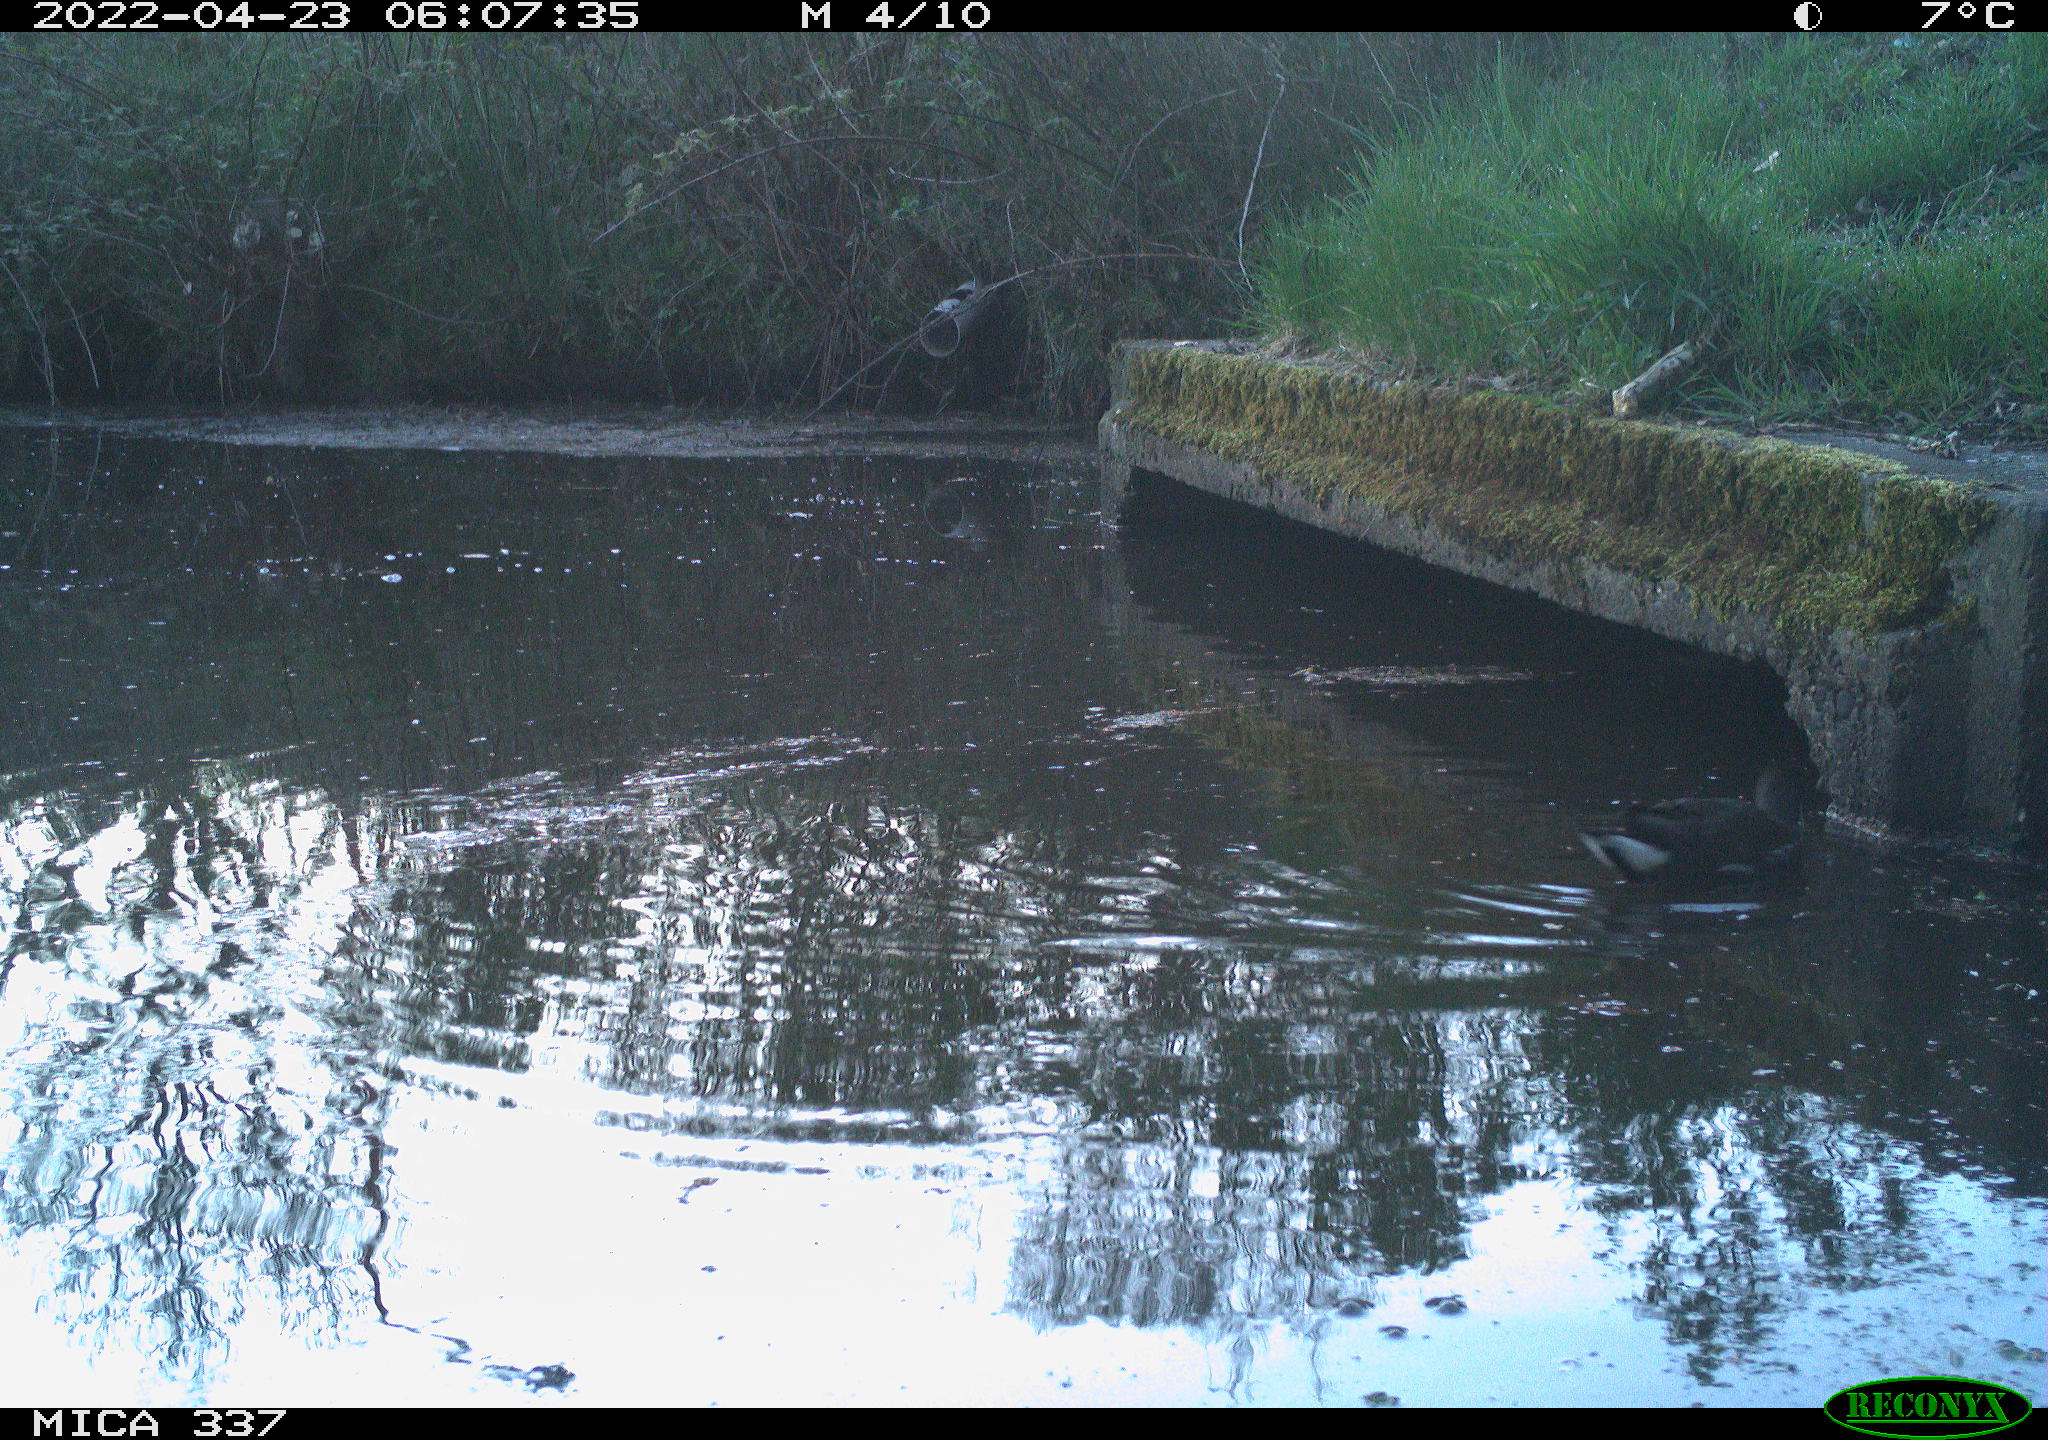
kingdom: Animalia
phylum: Chordata
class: Aves
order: Gruiformes
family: Rallidae
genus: Gallinula
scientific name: Gallinula chloropus
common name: Common moorhen
